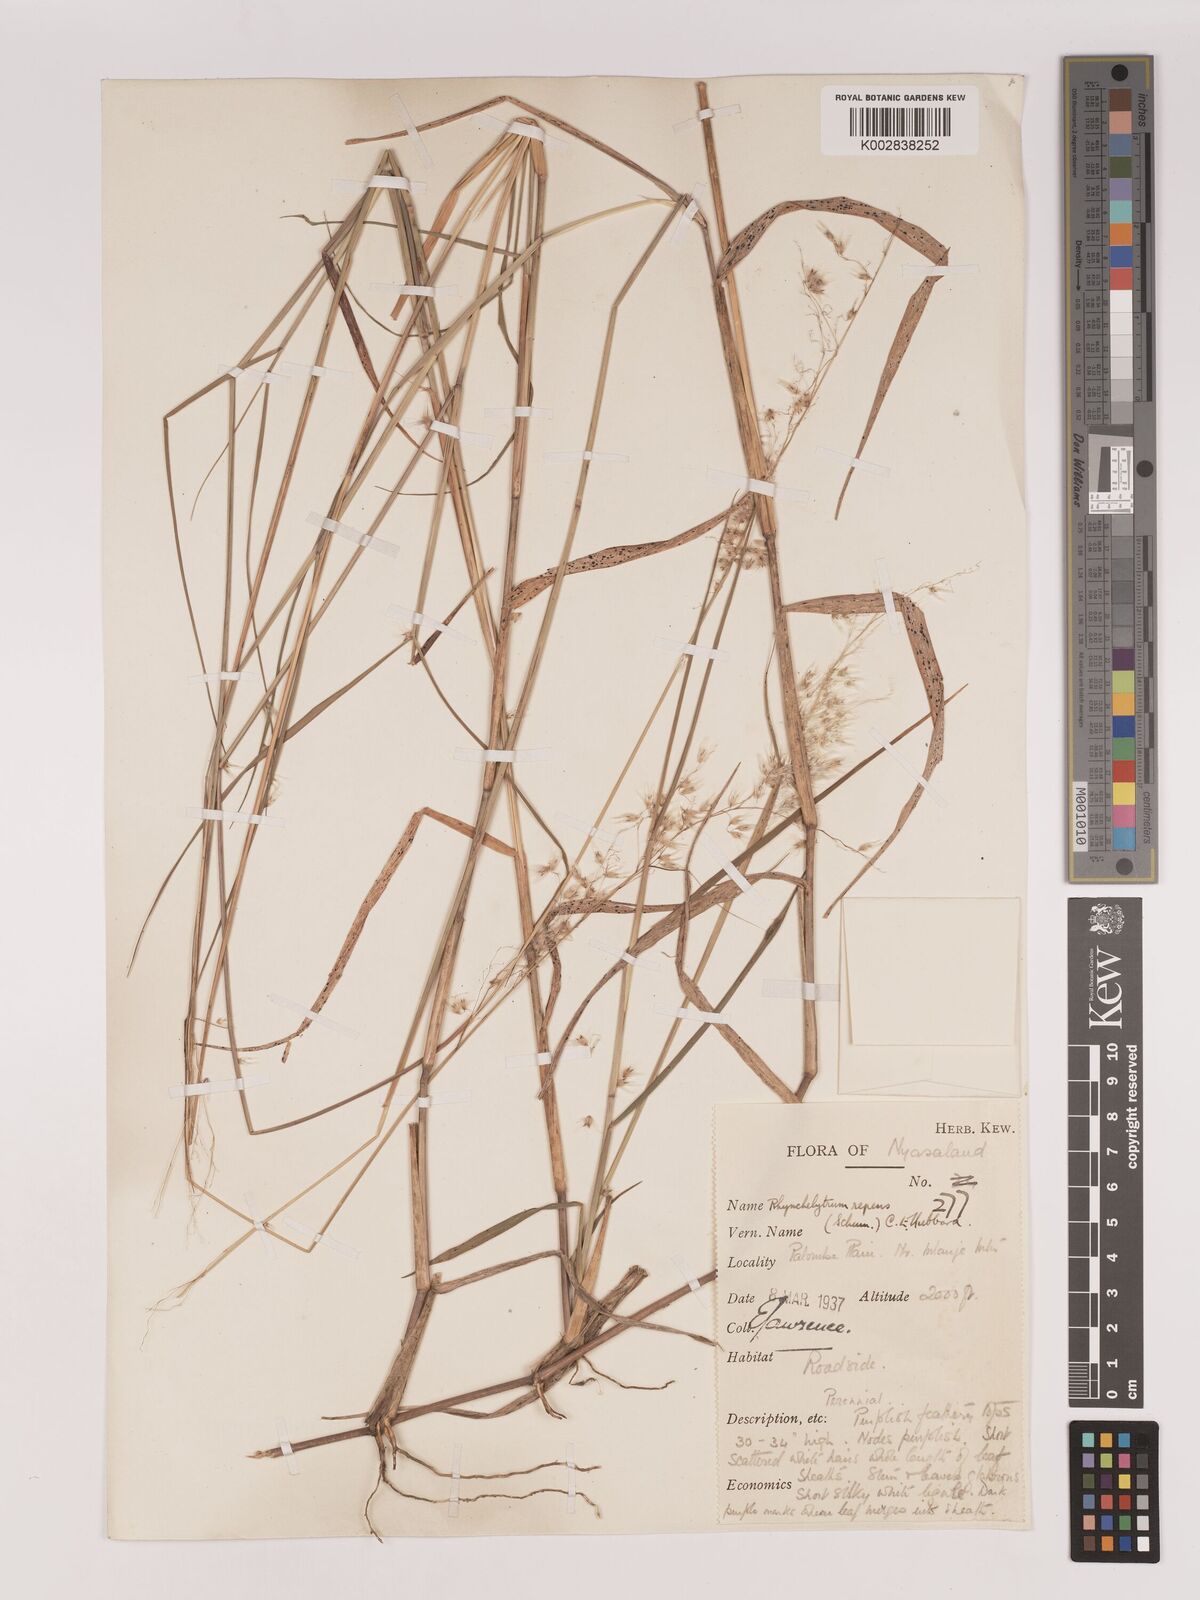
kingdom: Plantae
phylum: Tracheophyta
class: Liliopsida
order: Poales
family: Poaceae
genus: Melinis
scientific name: Melinis repens
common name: Rose natal grass
